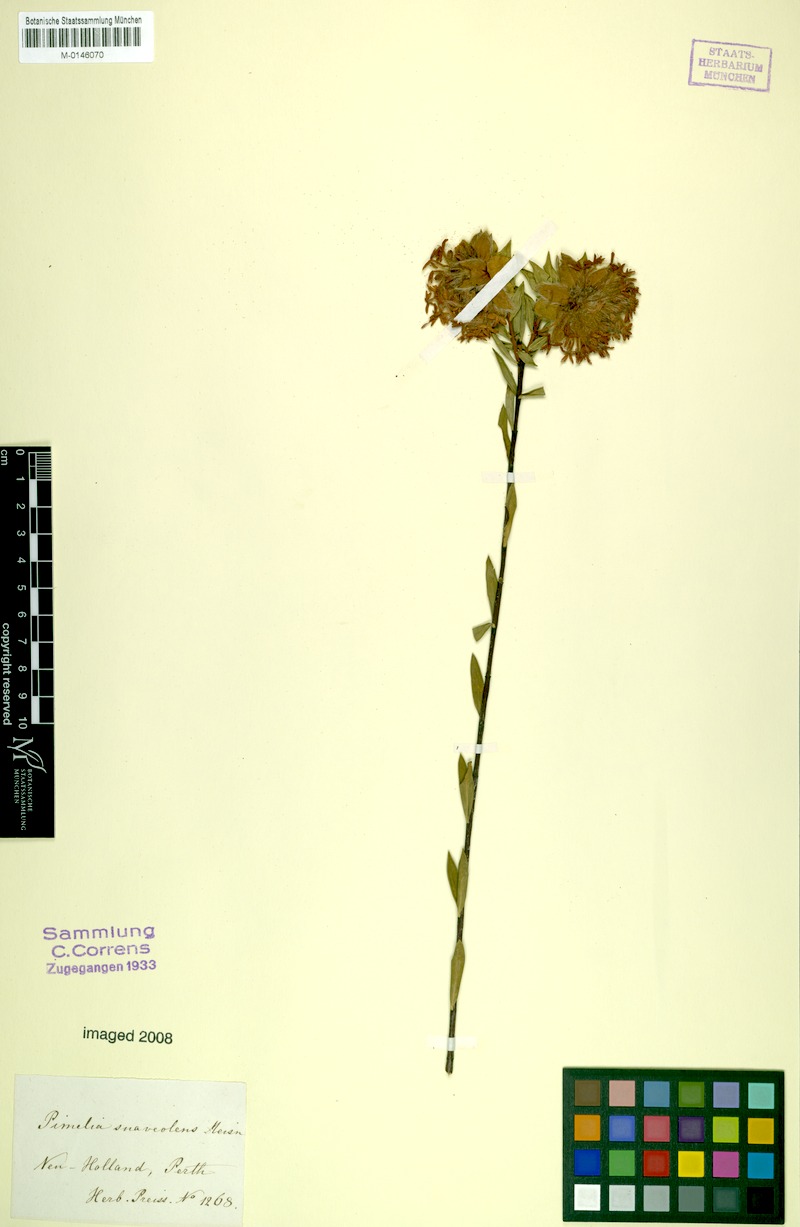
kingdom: Plantae
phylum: Tracheophyta
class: Magnoliopsida
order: Malvales
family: Thymelaeaceae
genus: Pimelea
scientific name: Pimelea suaveolens
